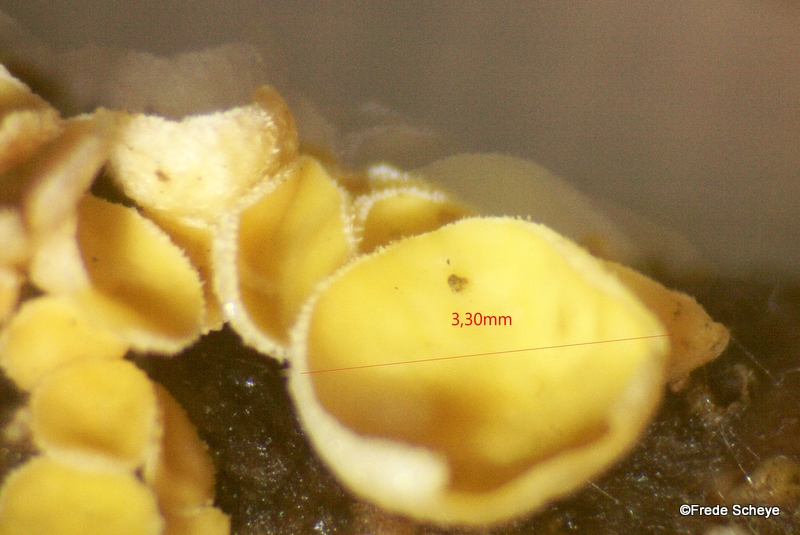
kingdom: Fungi
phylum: Ascomycota
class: Leotiomycetes
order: Helotiales
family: Lachnaceae
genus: Lachnellula
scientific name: Lachnellula subtilissima
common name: gran-frynseskive
